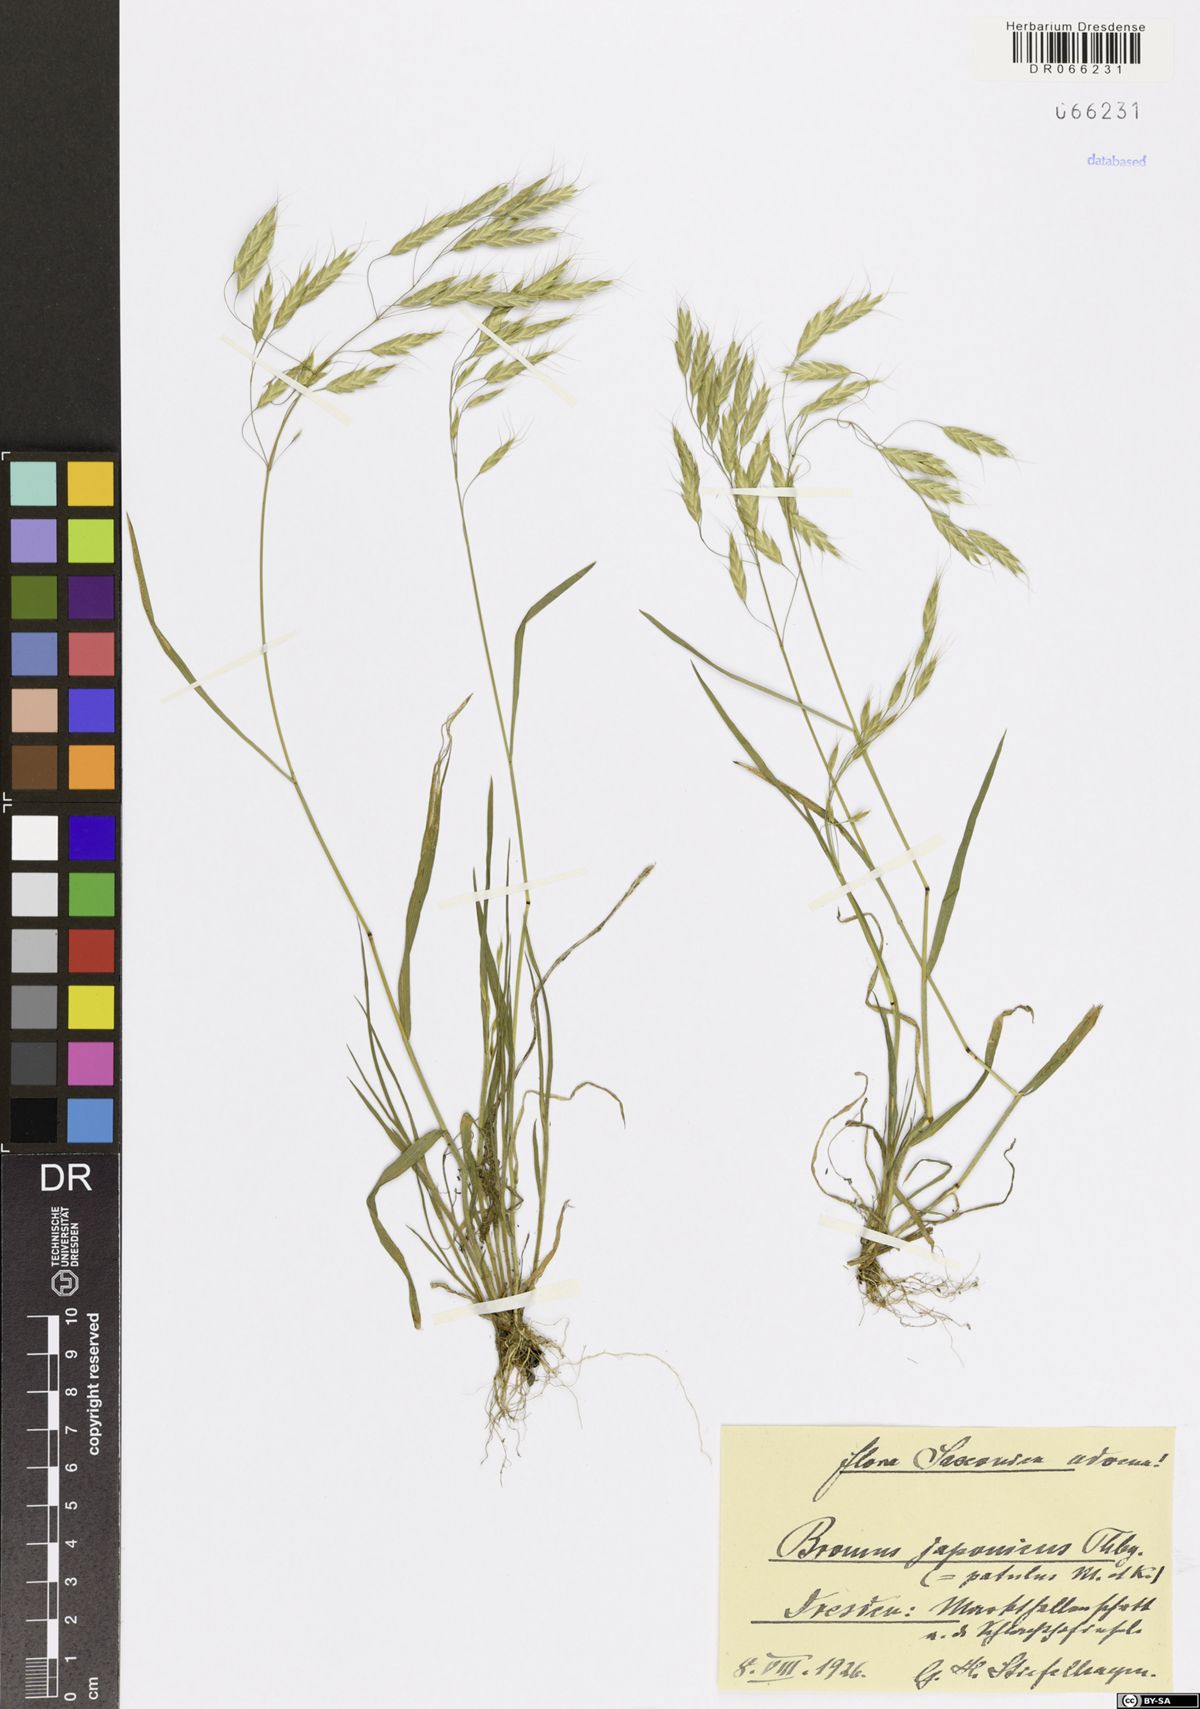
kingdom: Plantae
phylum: Tracheophyta
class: Liliopsida
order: Poales
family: Poaceae
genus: Bromus
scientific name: Bromus japonicus
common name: Japanese brome
